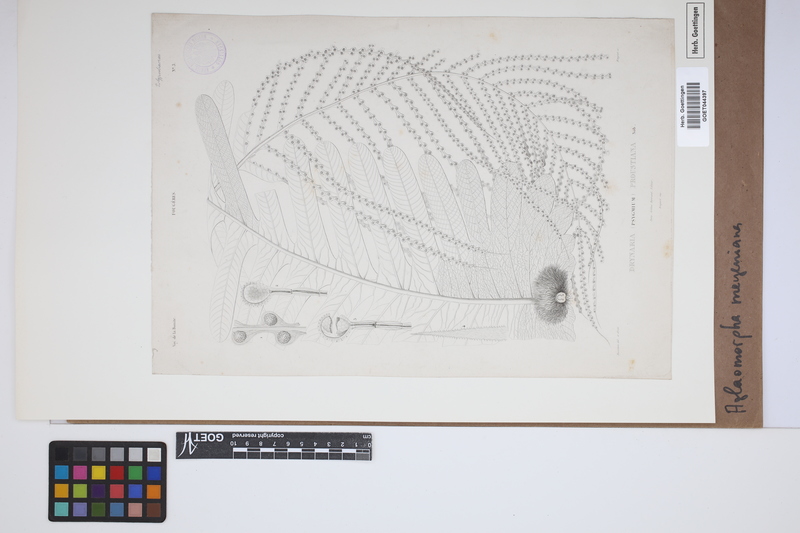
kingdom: Plantae
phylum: Tracheophyta
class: Polypodiopsida
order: Polypodiales
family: Polypodiaceae
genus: Drynaria
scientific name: Drynaria meyeniana
